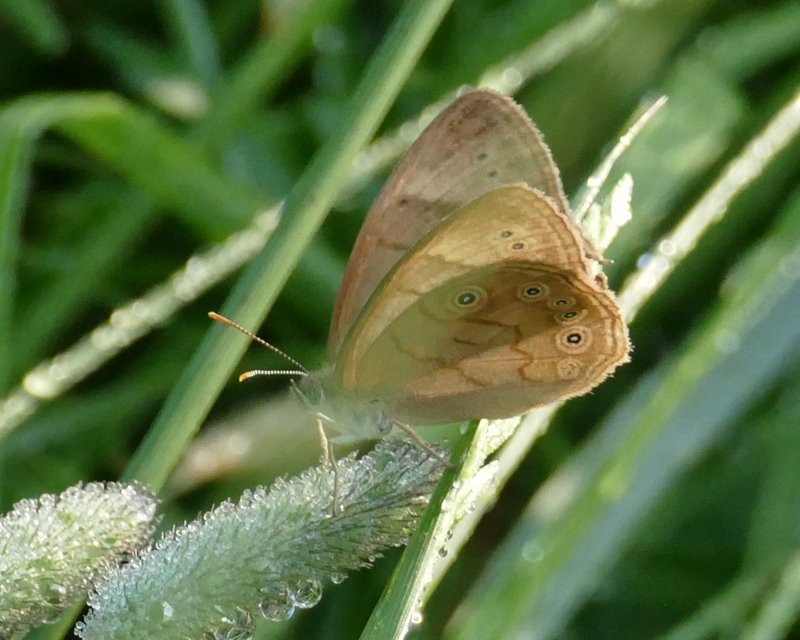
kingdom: Animalia
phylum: Arthropoda
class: Insecta
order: Lepidoptera
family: Nymphalidae
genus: Lethe
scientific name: Lethe
